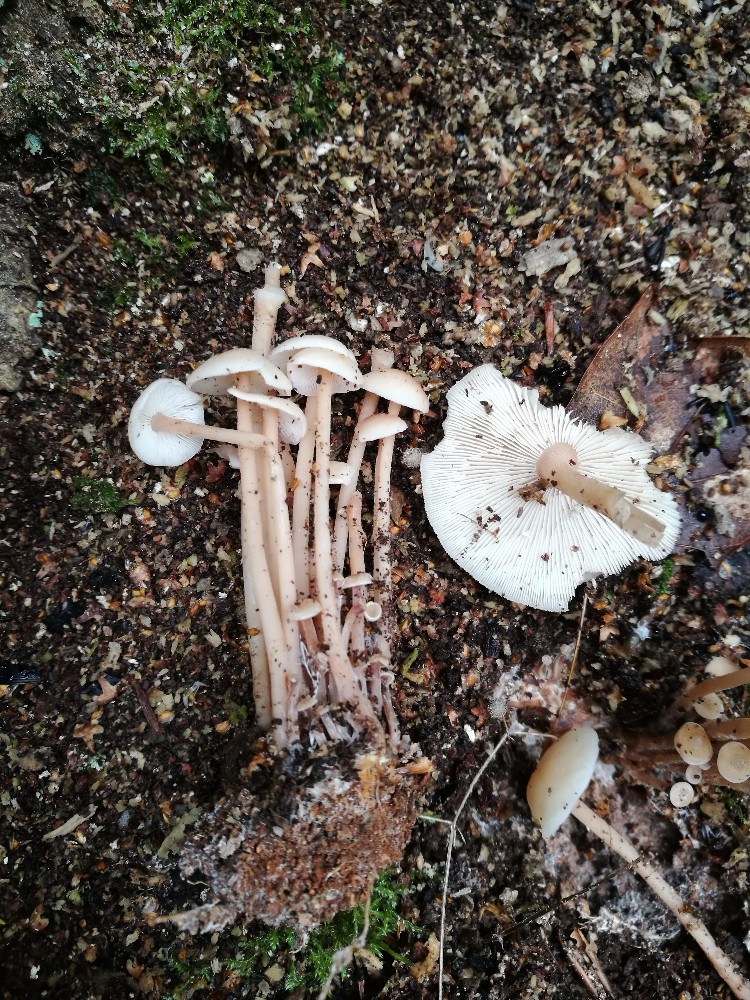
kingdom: Fungi
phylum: Basidiomycota
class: Agaricomycetes
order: Agaricales
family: Omphalotaceae
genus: Collybiopsis
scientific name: Collybiopsis confluens
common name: knippe-fladhat
